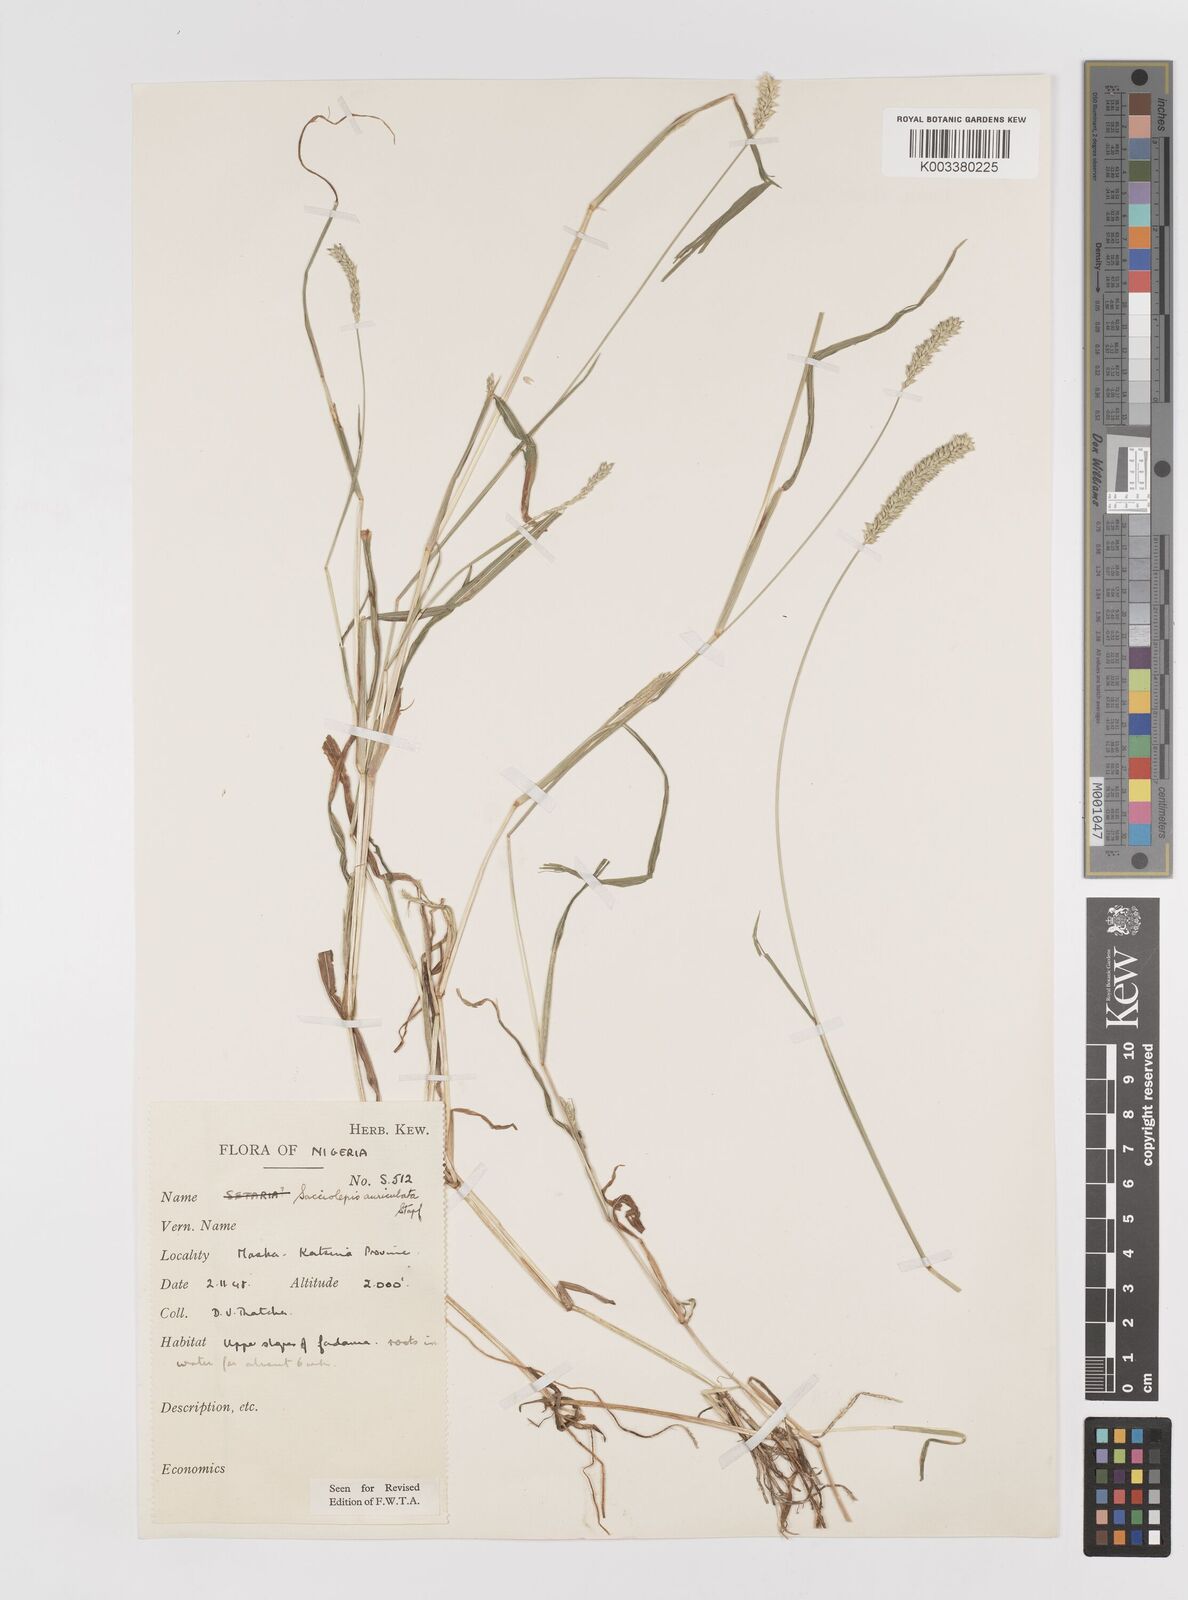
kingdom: Plantae
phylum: Tracheophyta
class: Liliopsida
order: Poales
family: Poaceae
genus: Sacciolepis
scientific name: Sacciolepis indica
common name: Glenwoodgrass
